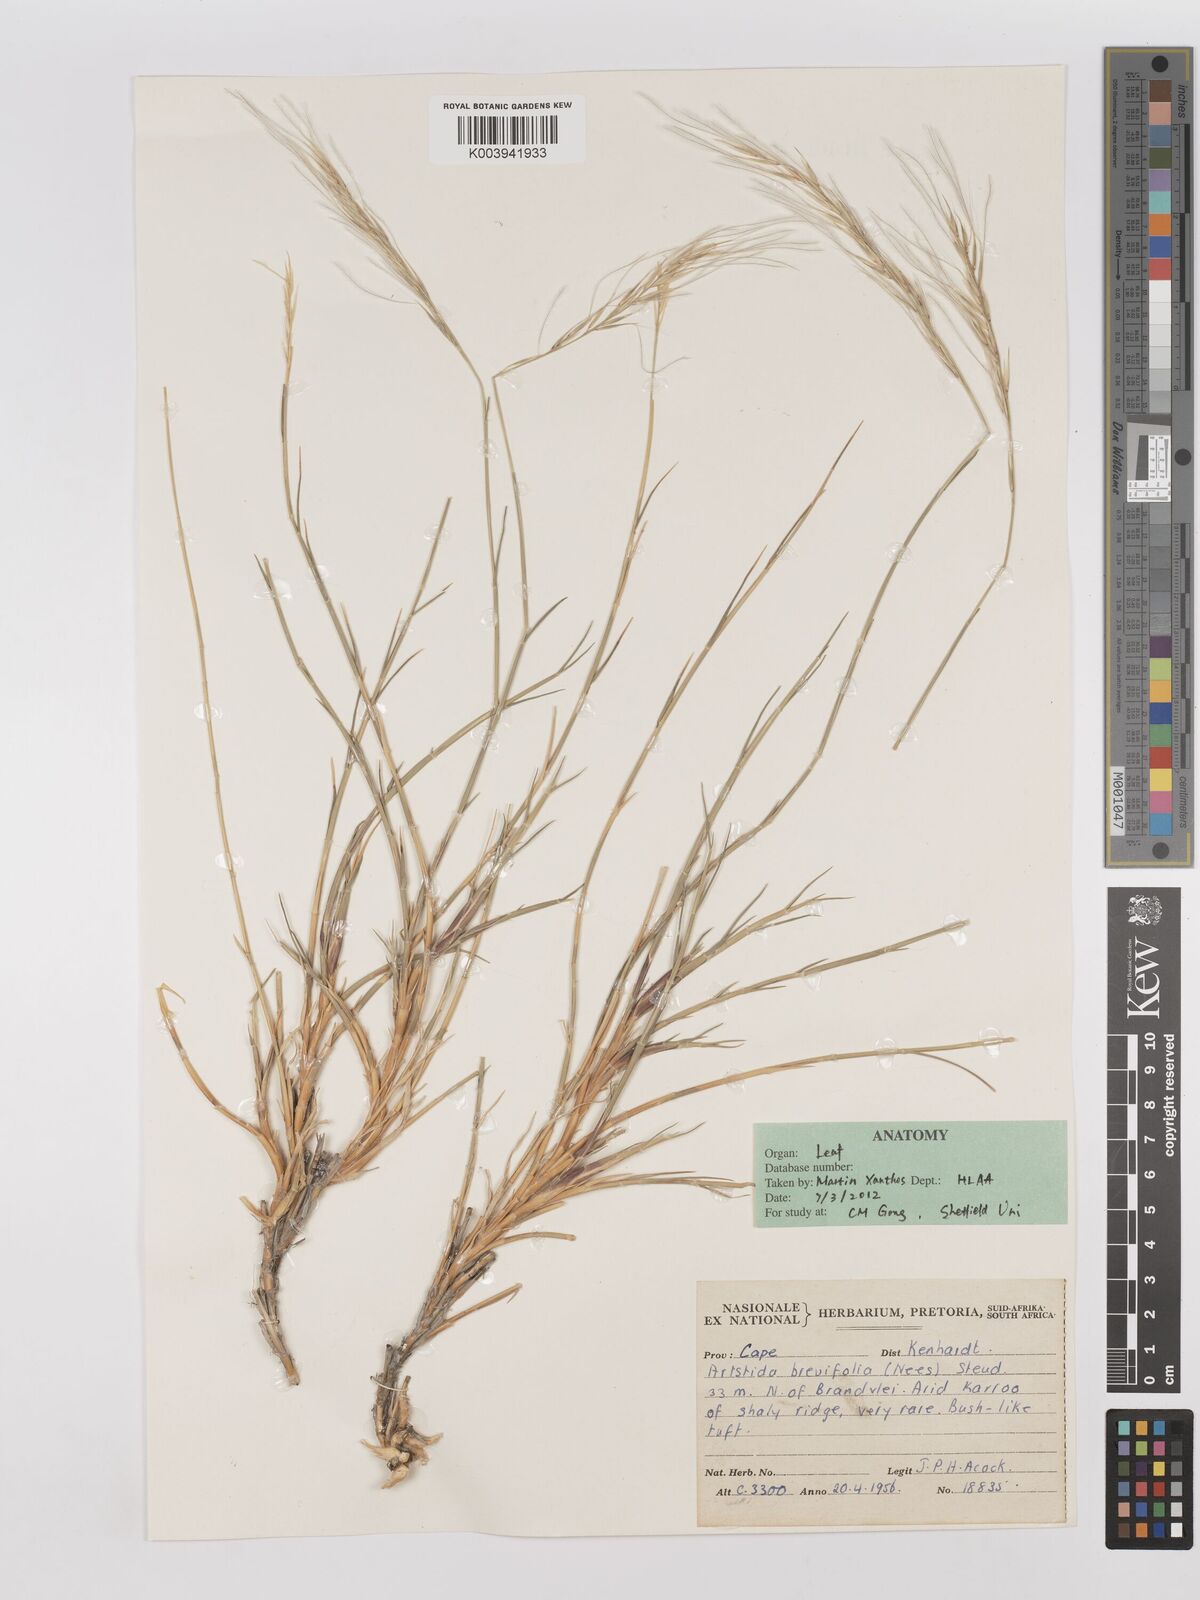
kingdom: Plantae
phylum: Tracheophyta
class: Liliopsida
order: Poales
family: Poaceae
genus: Stipagrostis
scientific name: Stipagrostis brevifolia
